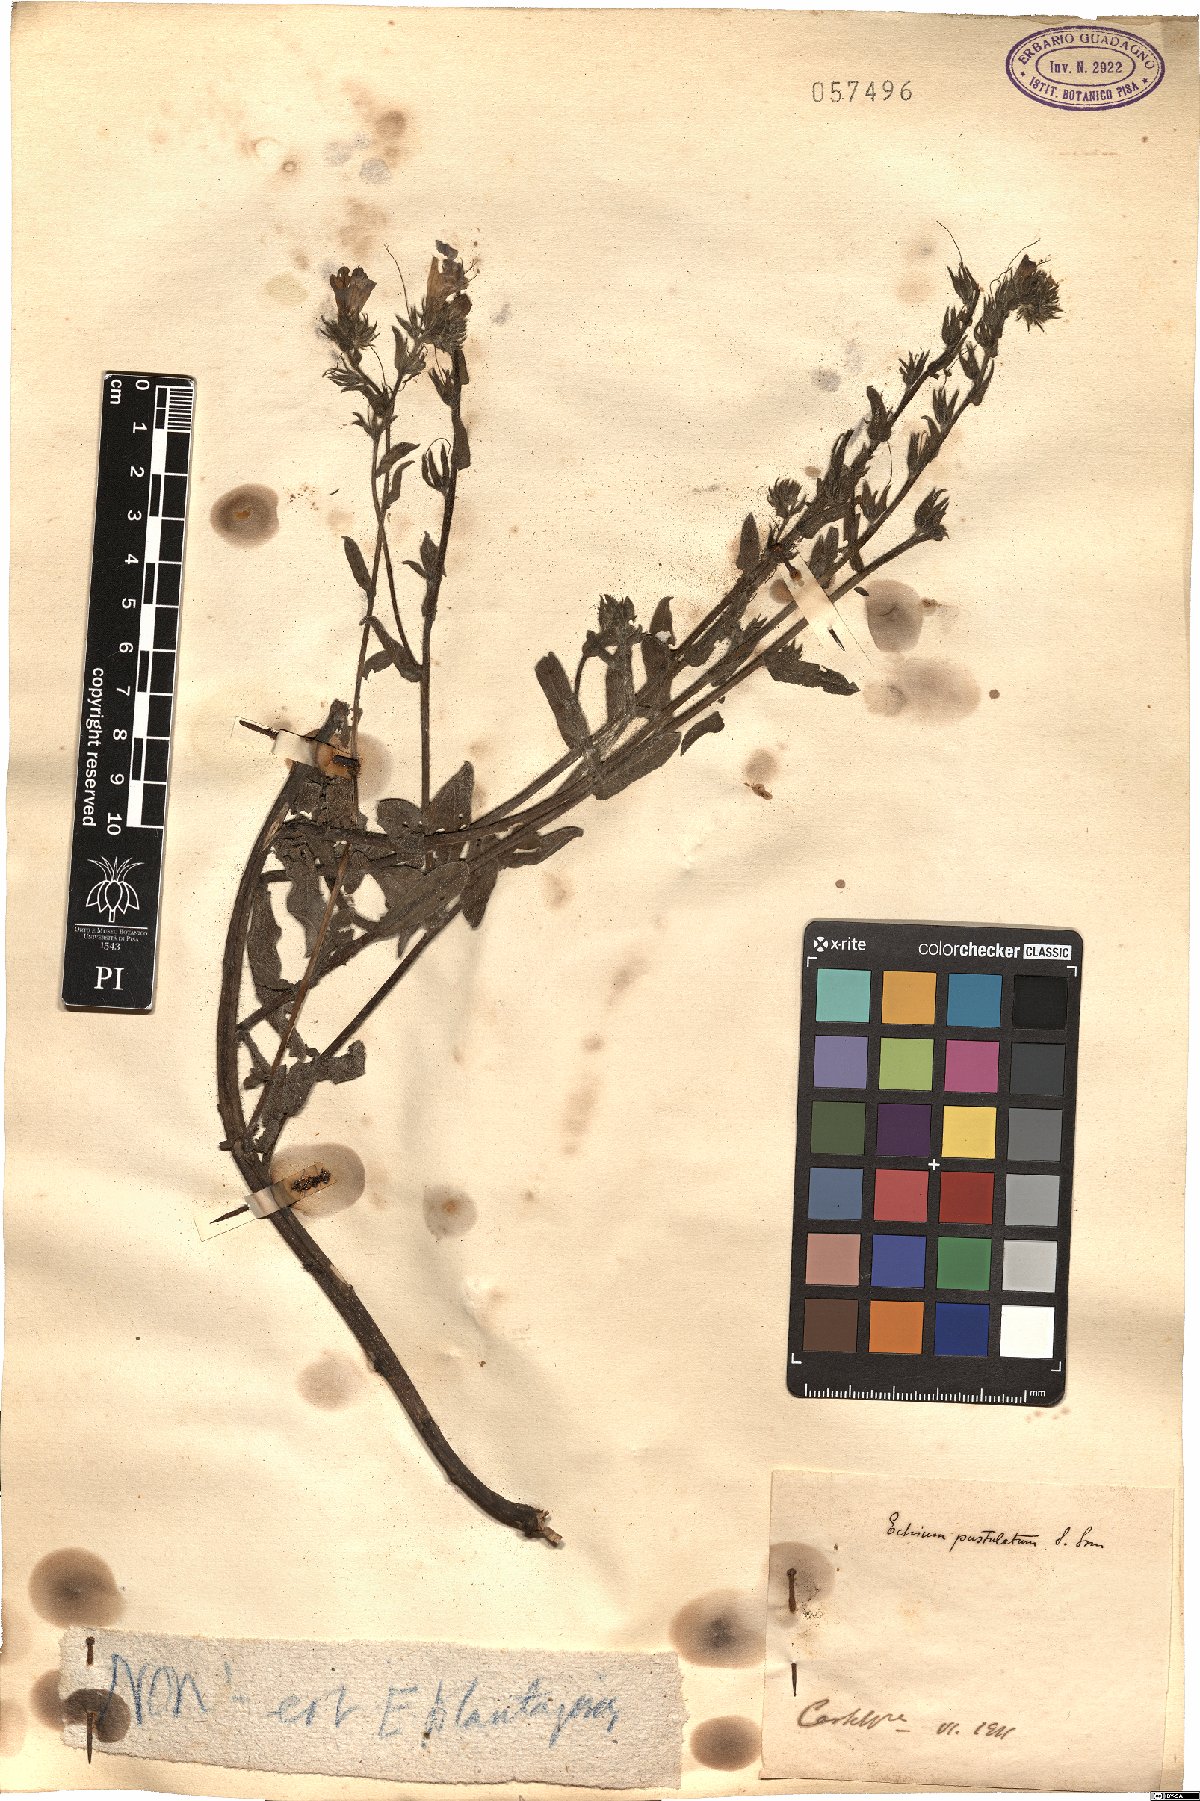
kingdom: Plantae
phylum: Tracheophyta
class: Magnoliopsida
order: Boraginales
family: Boraginaceae
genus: Echium
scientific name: Echium vulgare
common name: Common viper's bugloss
